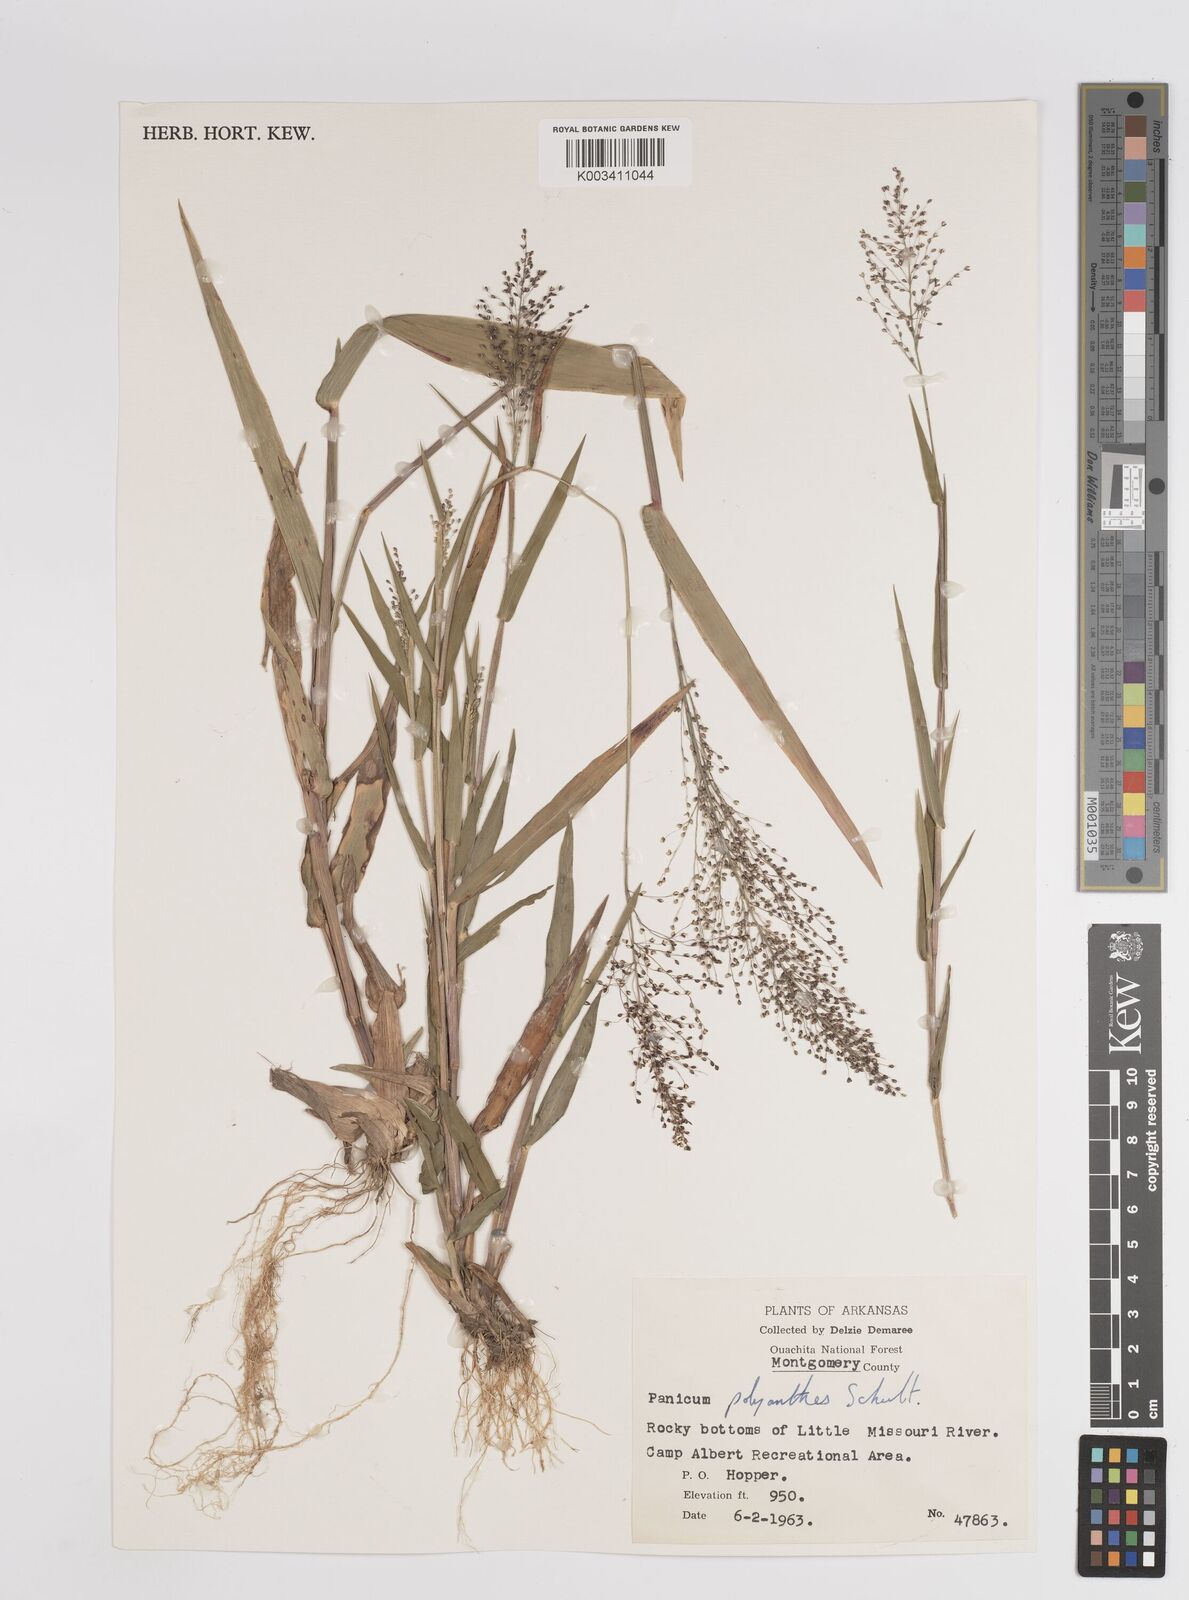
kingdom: Plantae
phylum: Tracheophyta
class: Liliopsida
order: Poales
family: Poaceae
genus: Dichanthelium
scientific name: Dichanthelium polyanthes
